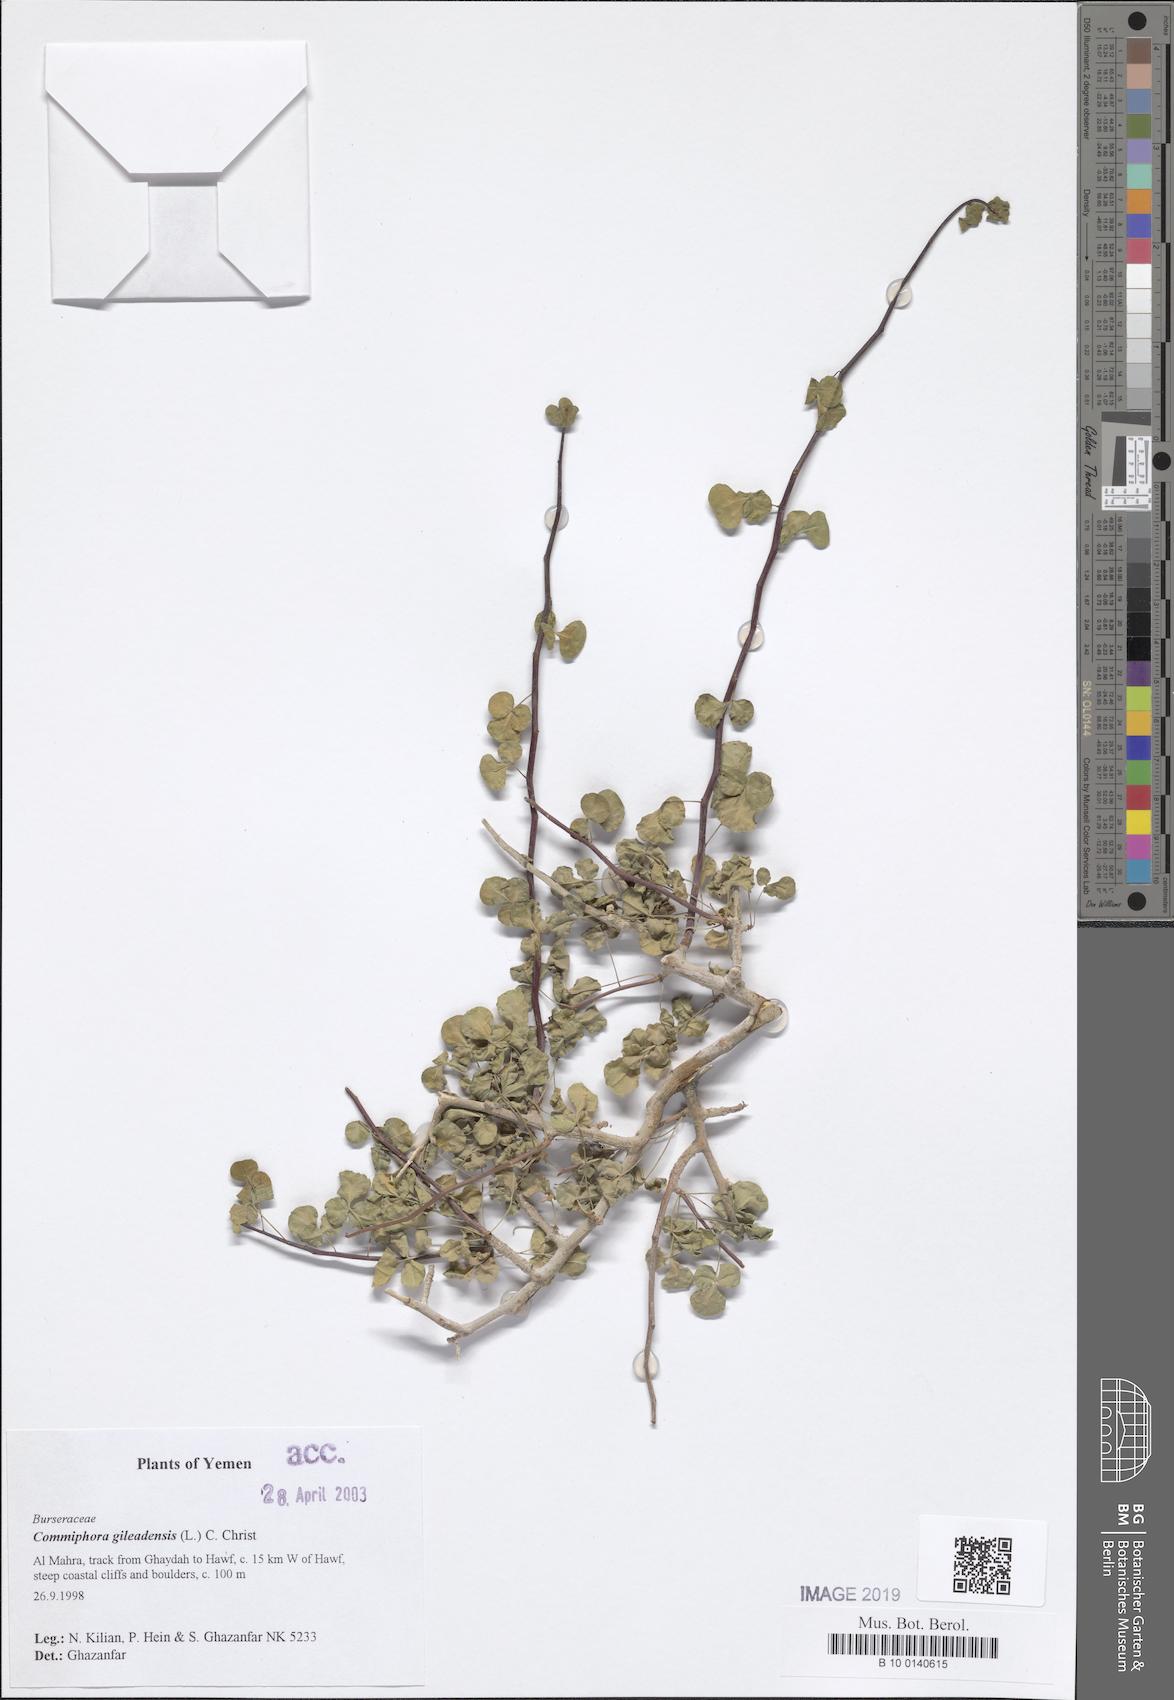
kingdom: Plantae
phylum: Tracheophyta
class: Magnoliopsida
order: Sapindales
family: Burseraceae
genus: Commiphora
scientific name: Commiphora gileadensis
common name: Balm-of-gilead
